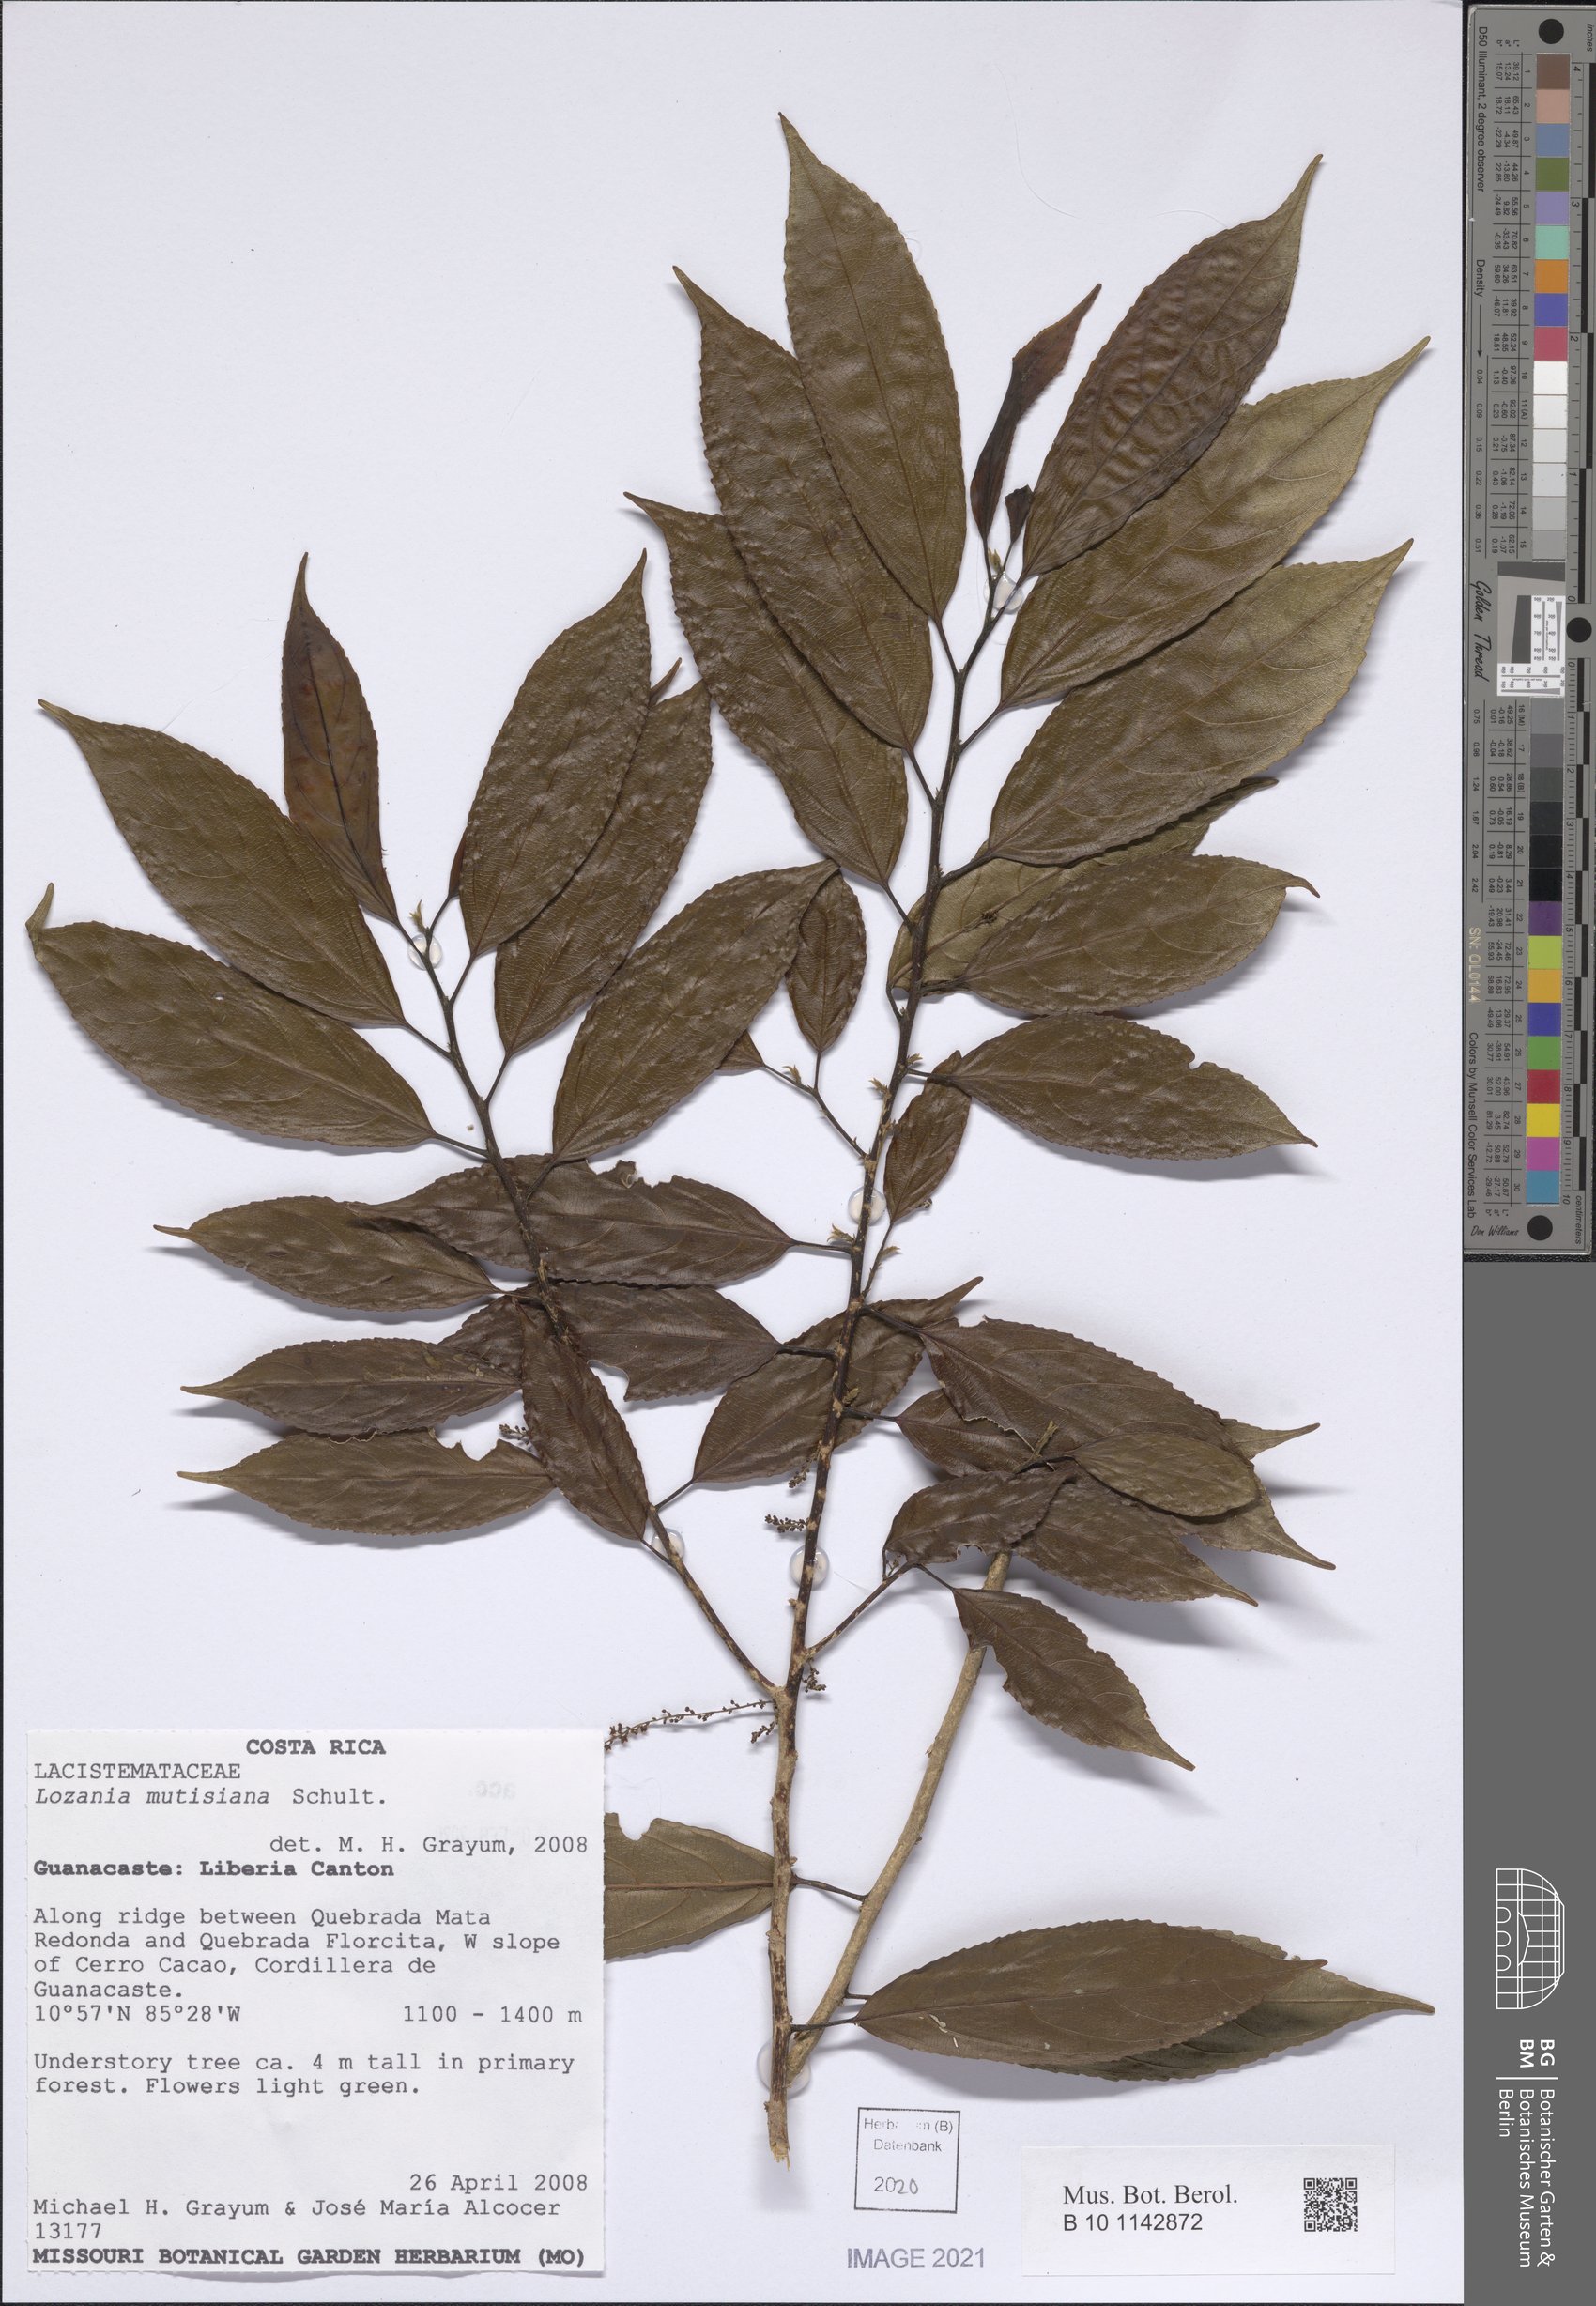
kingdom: Plantae
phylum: Tracheophyta
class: Magnoliopsida
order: Malpighiales
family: Lacistemataceae
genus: Lozania
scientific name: Lozania mutisiana
